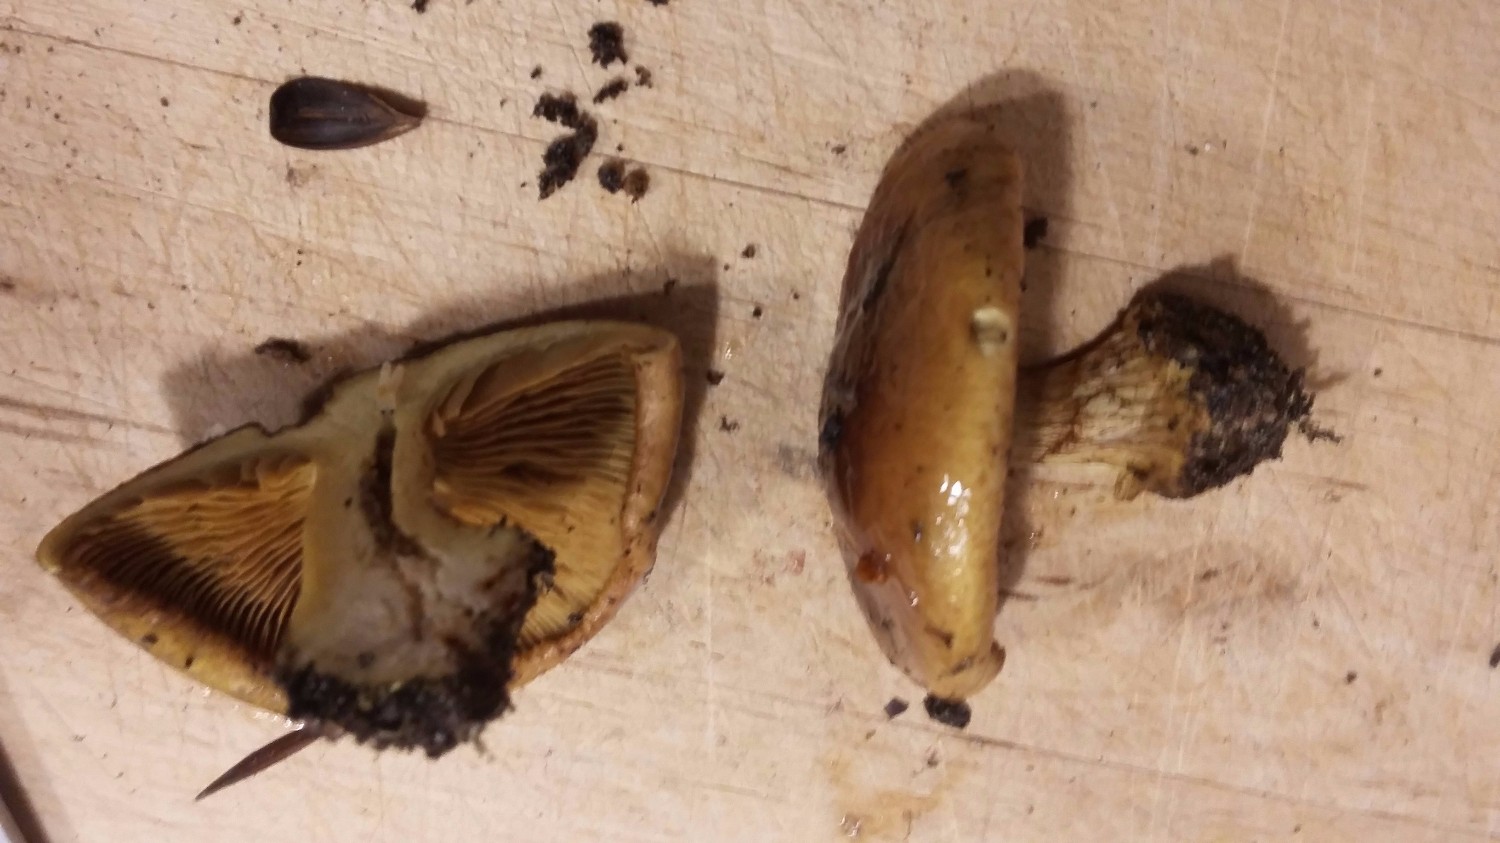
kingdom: Fungi
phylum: Basidiomycota
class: Agaricomycetes
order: Agaricales
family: Cortinariaceae
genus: Cortinarius
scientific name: Cortinarius
